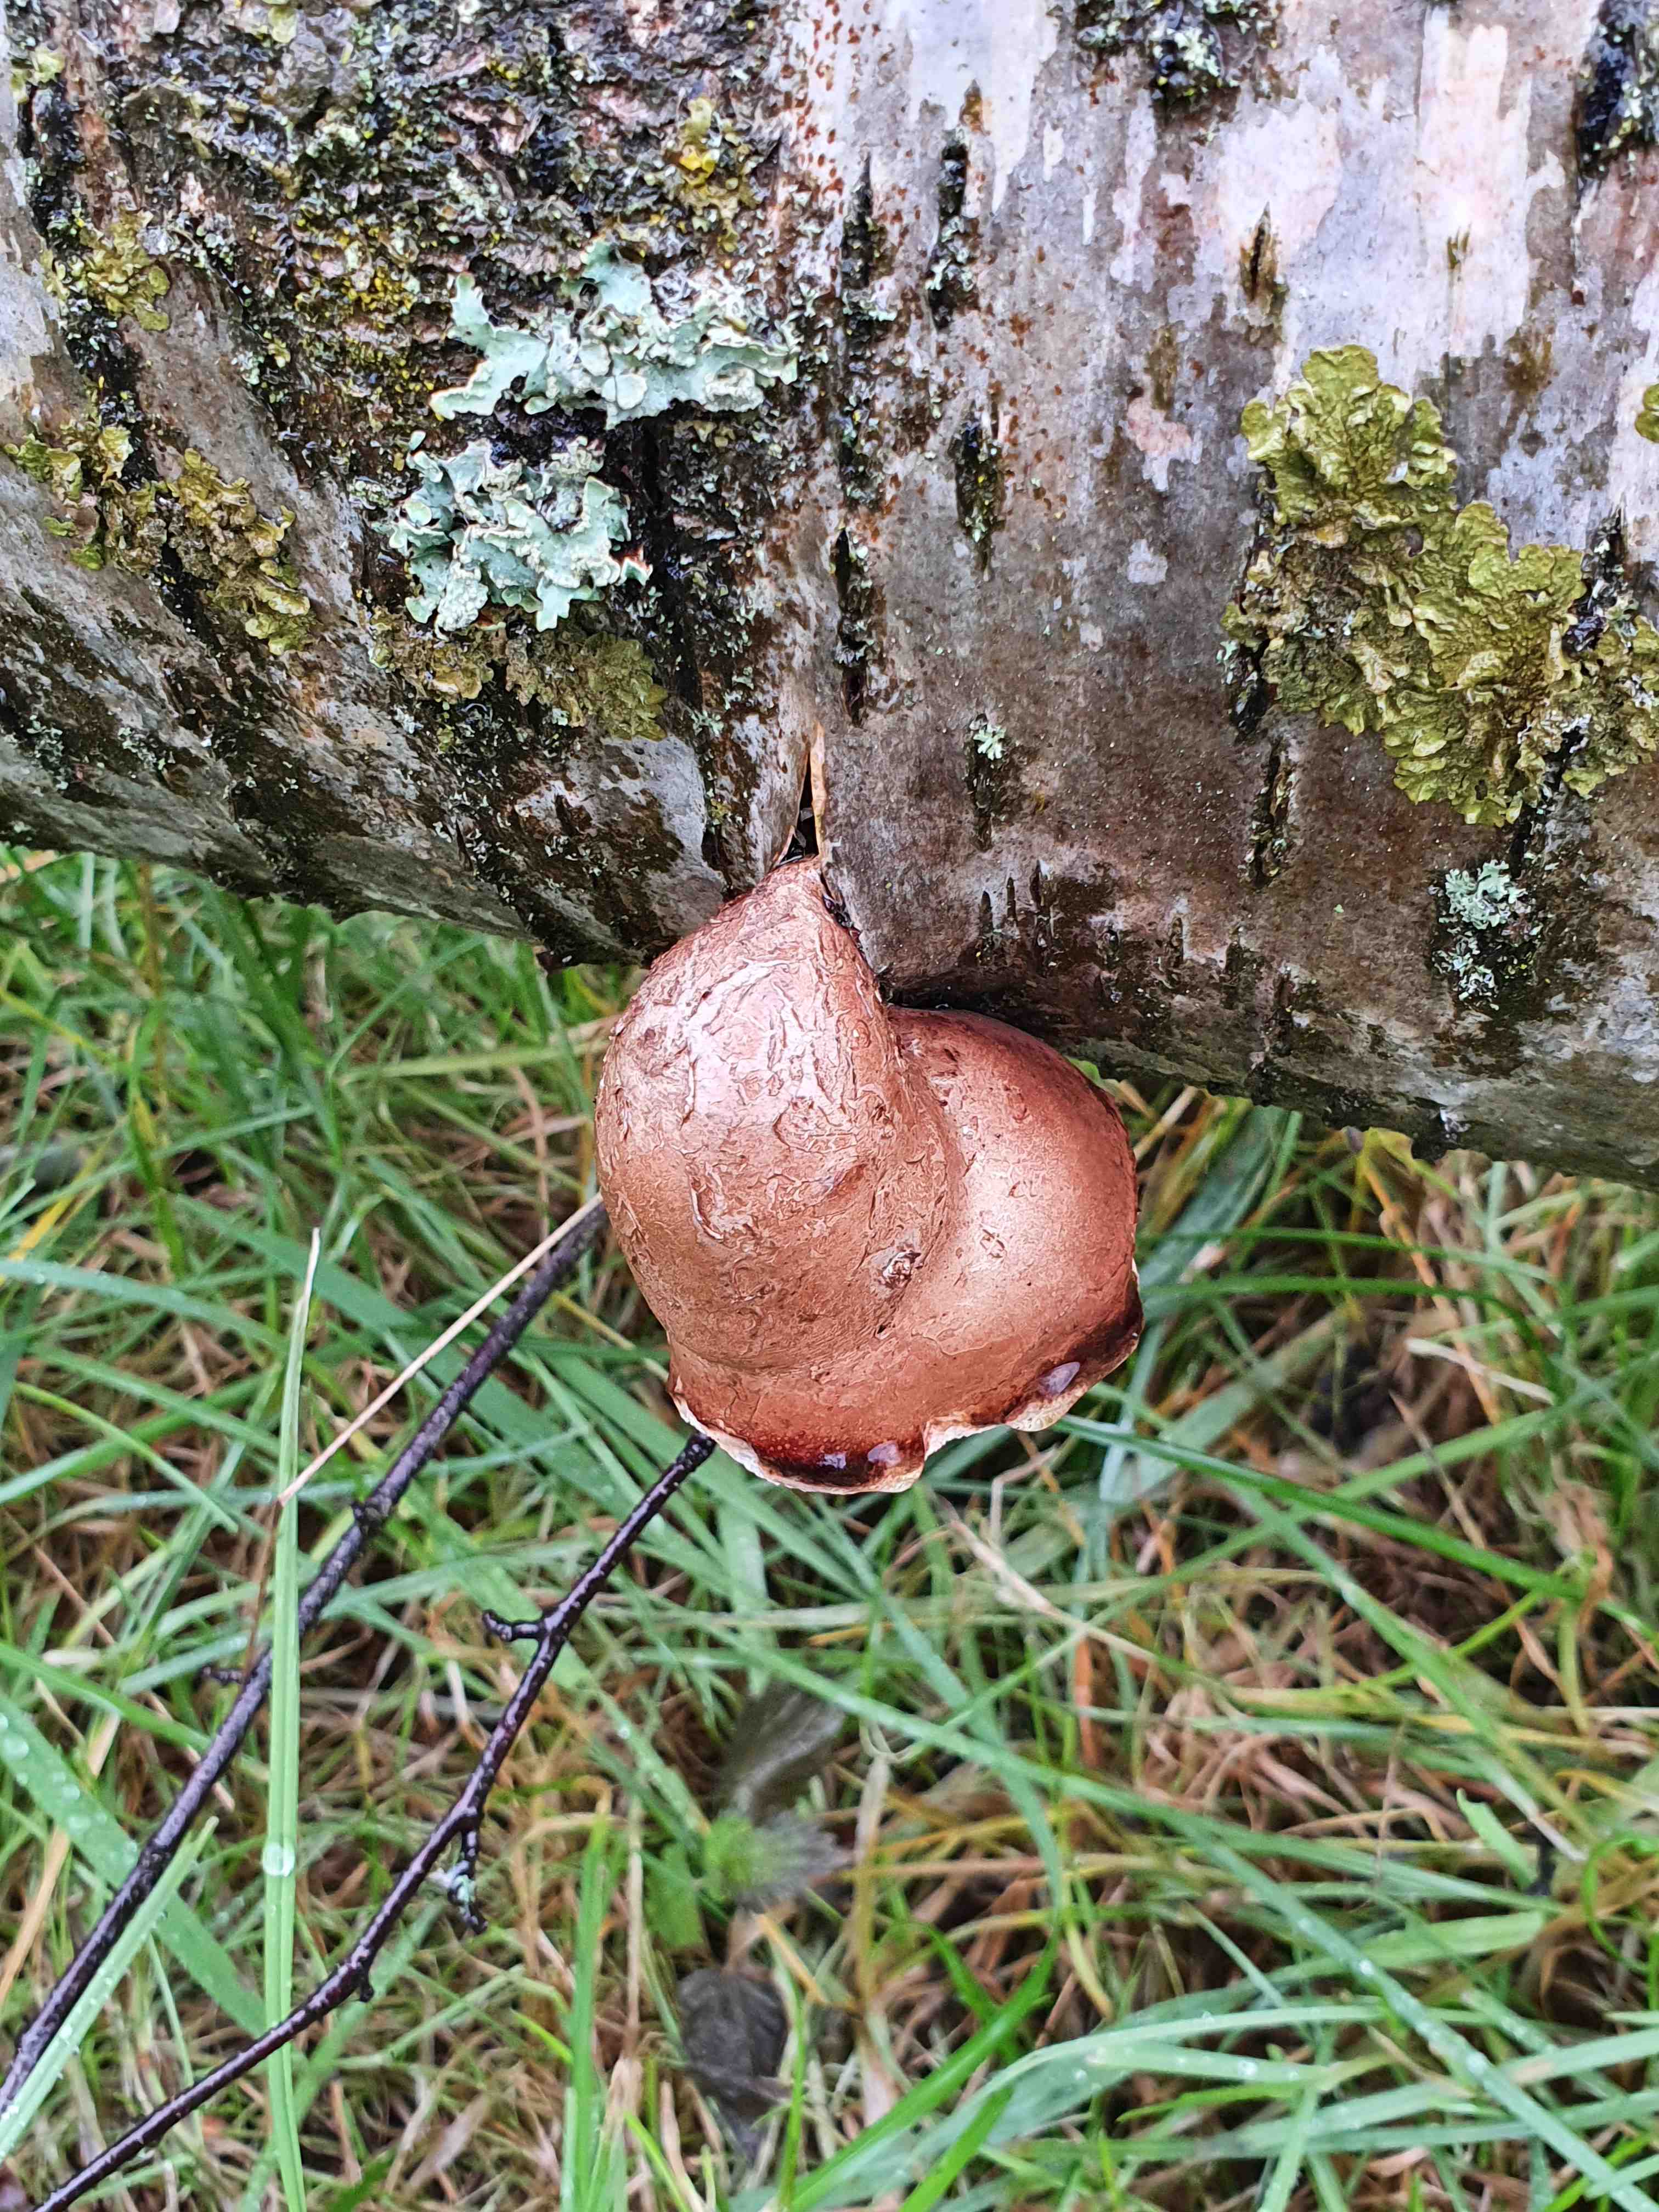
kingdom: Fungi
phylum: Basidiomycota
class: Agaricomycetes
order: Polyporales
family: Fomitopsidaceae
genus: Fomitopsis
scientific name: Fomitopsis betulina
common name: birkeporesvamp
